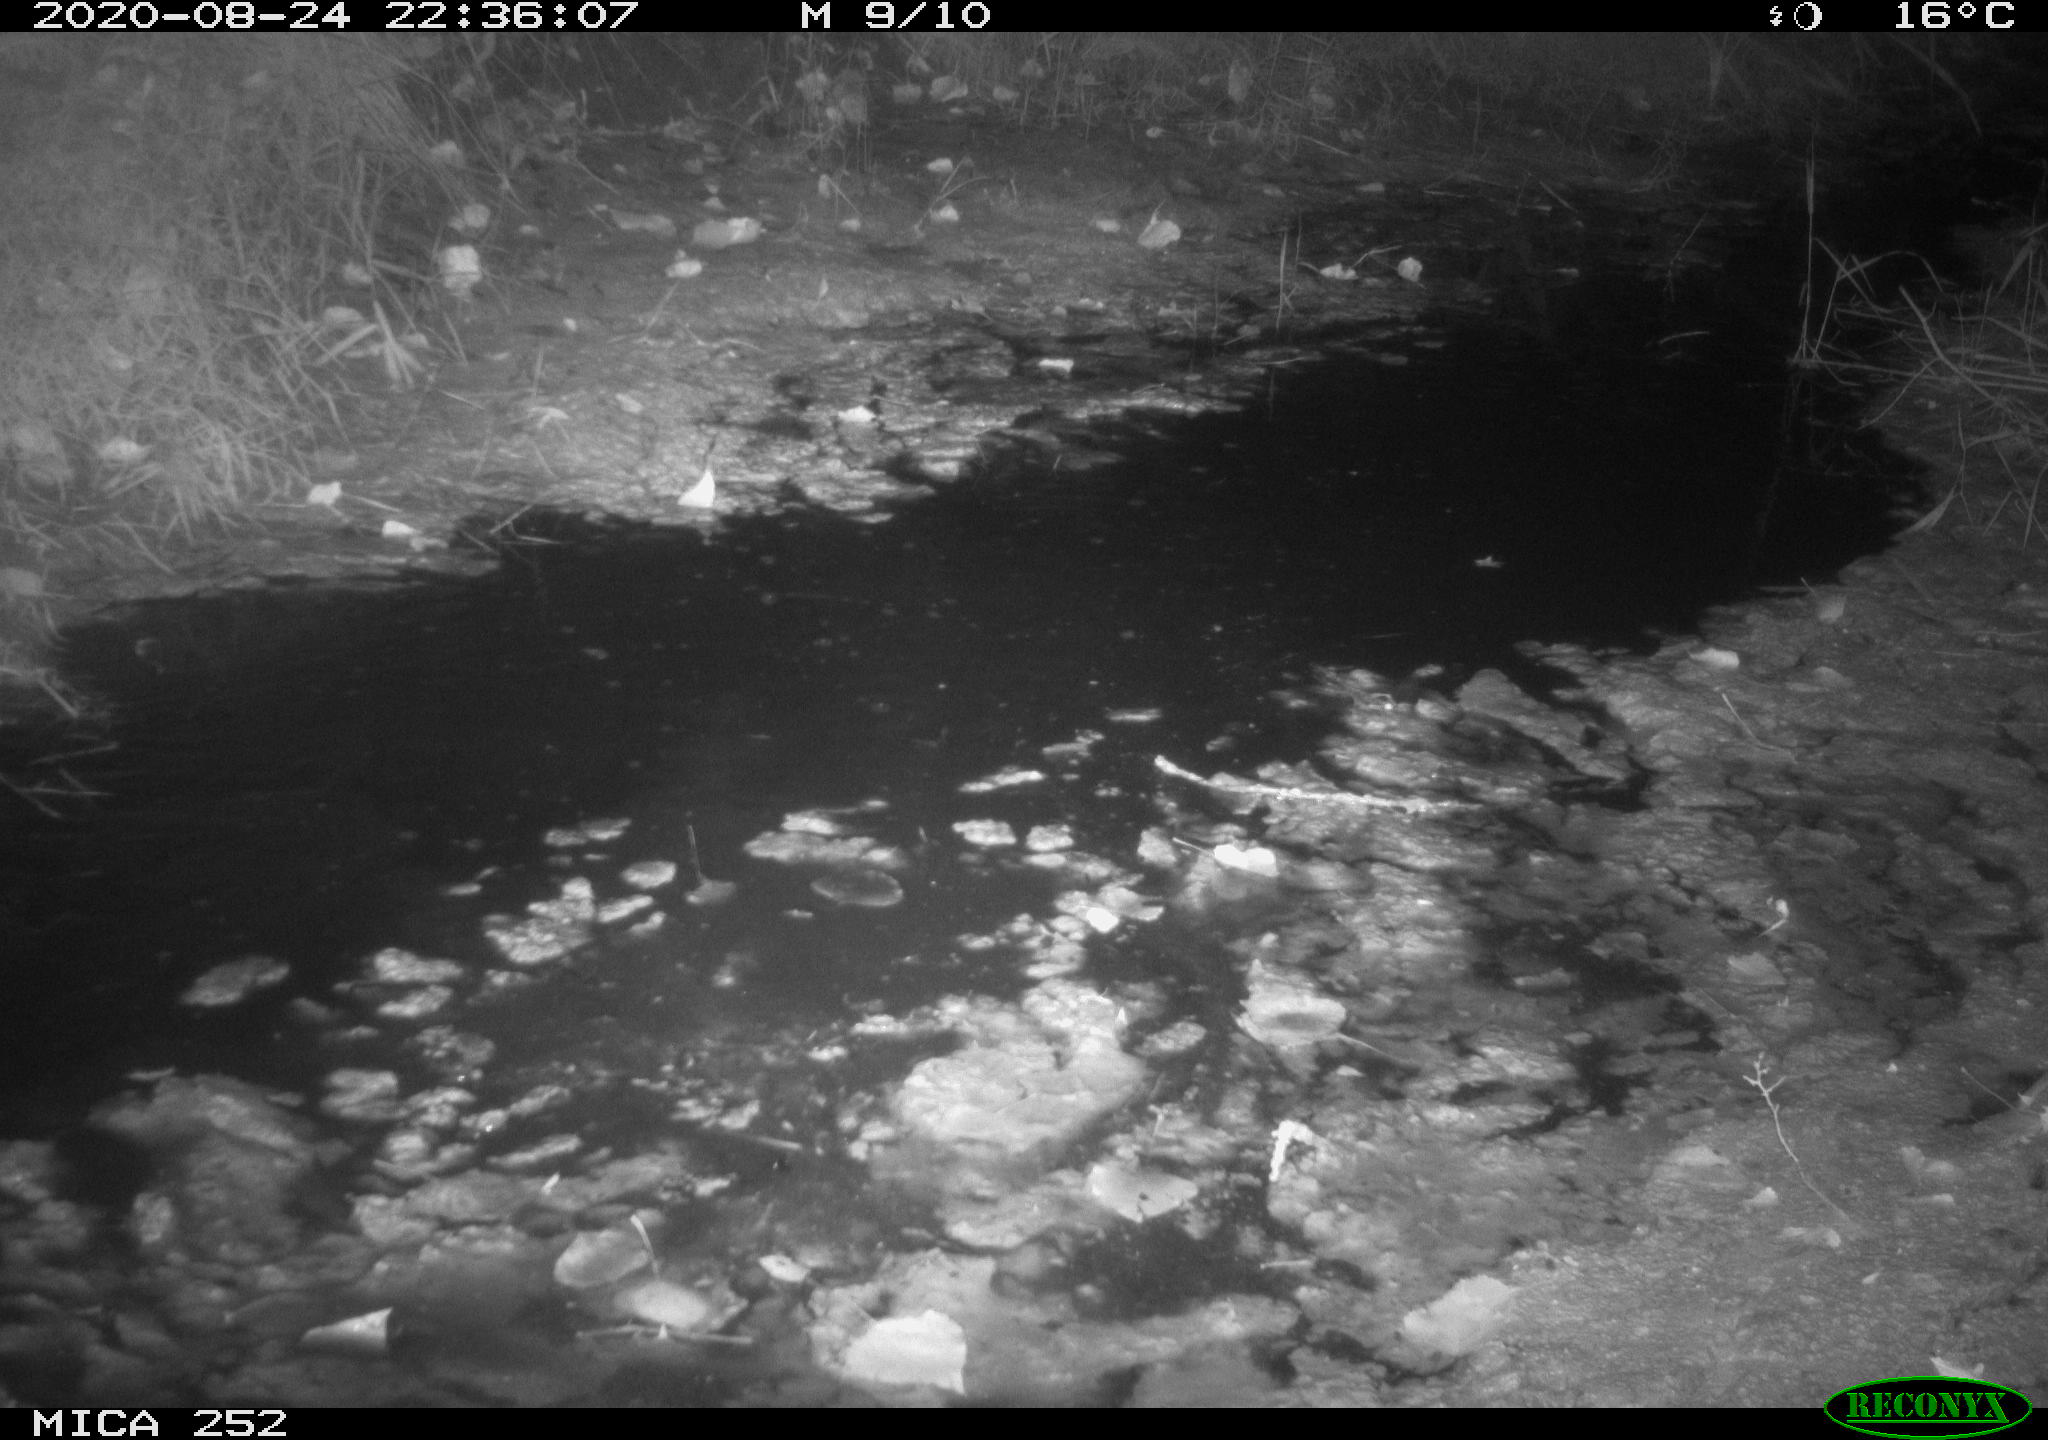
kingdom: Animalia
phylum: Chordata
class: Mammalia
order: Rodentia
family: Castoridae
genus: Castor
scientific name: Castor fiber
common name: Eurasian beaver
